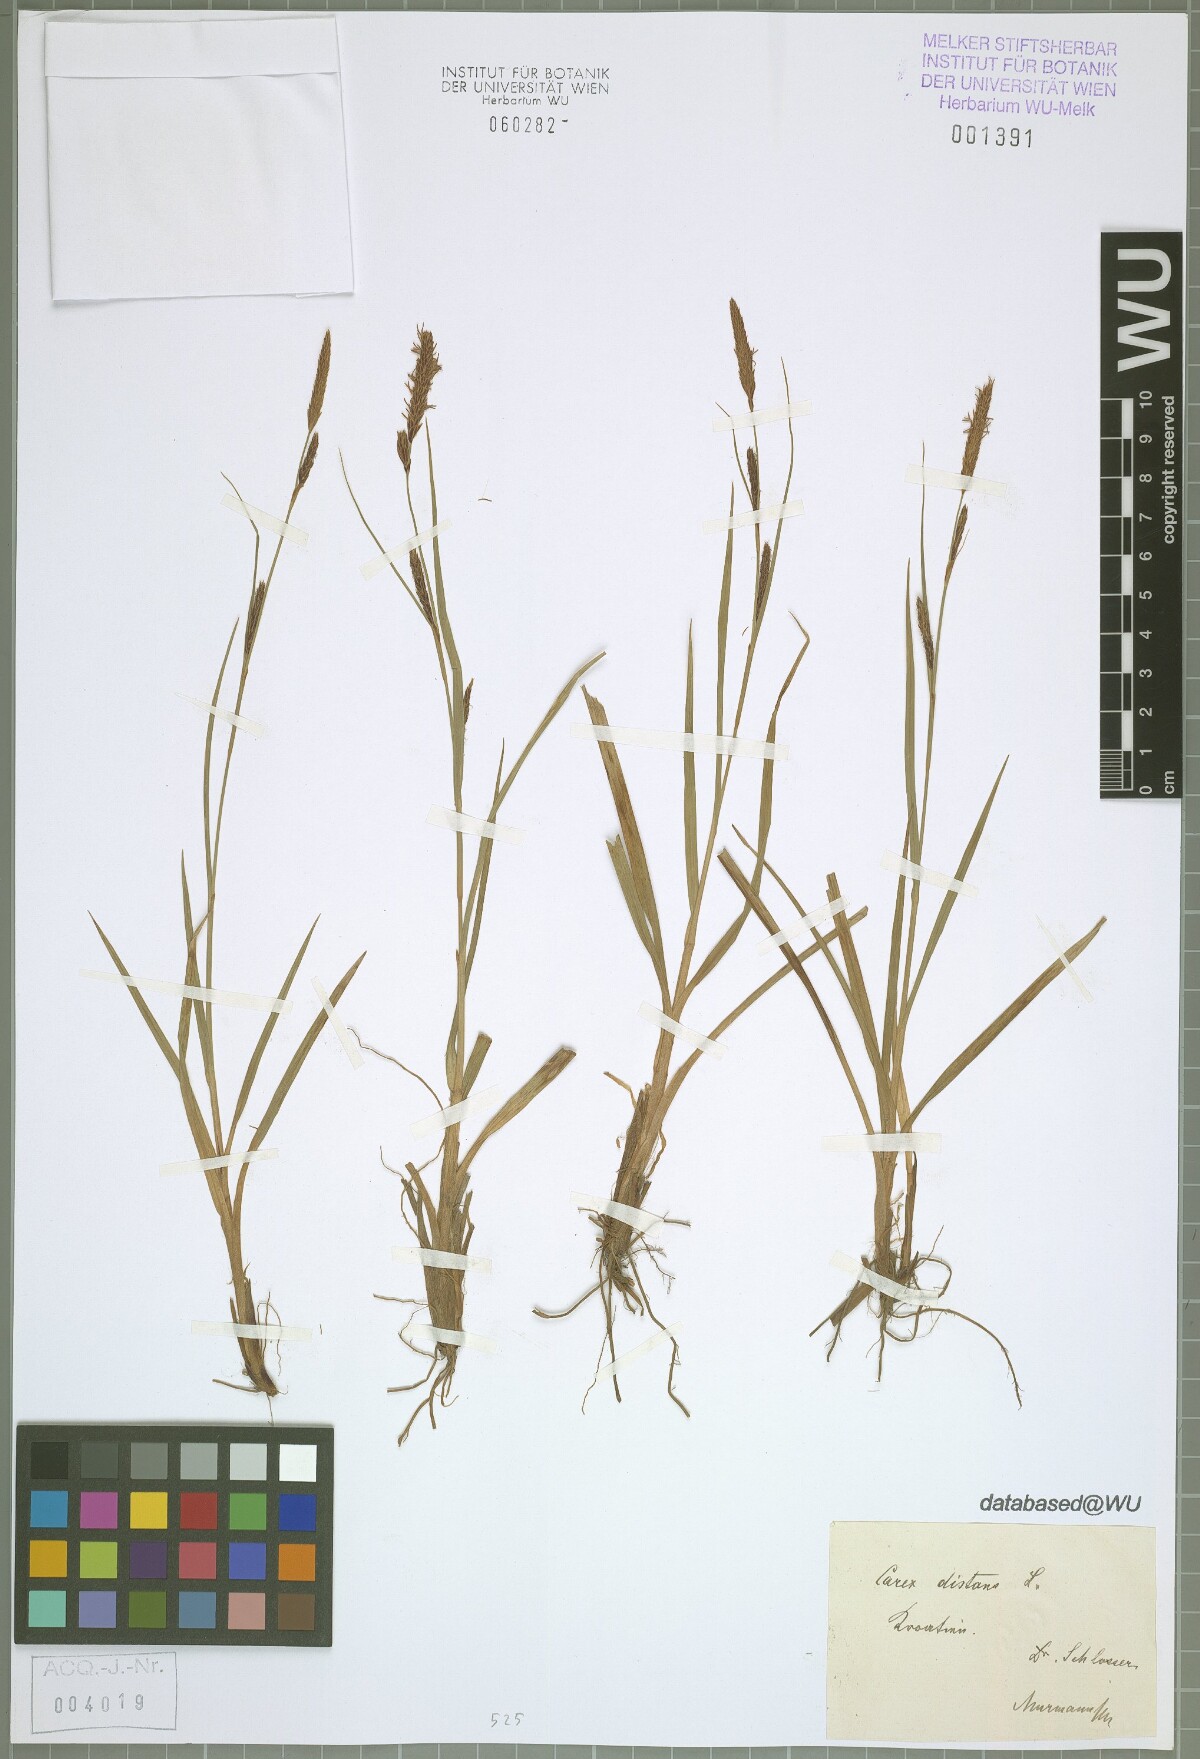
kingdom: Plantae
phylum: Tracheophyta
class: Liliopsida
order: Poales
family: Cyperaceae
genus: Carex
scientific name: Carex distans
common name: Distant sedge
